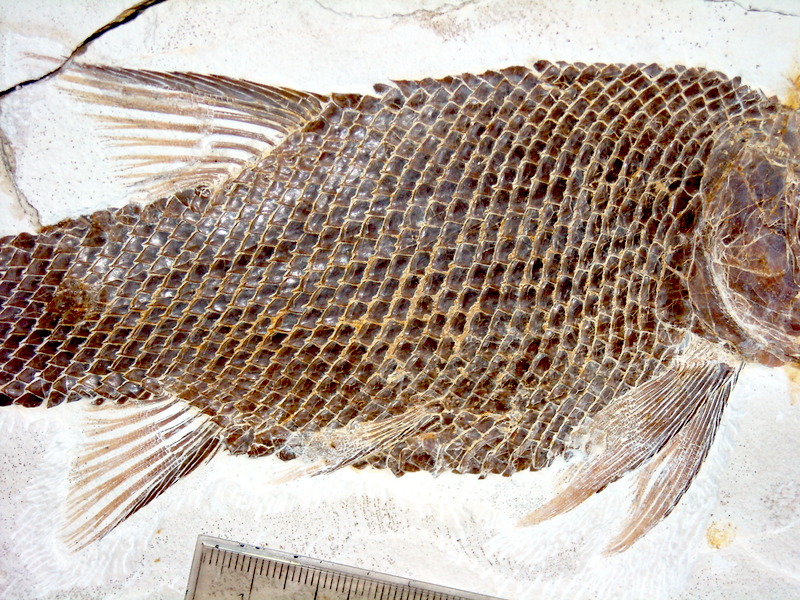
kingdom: Animalia
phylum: Chordata
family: Callipurbeckiidae
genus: Macrosemimimus
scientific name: Macrosemimimus fegerti
